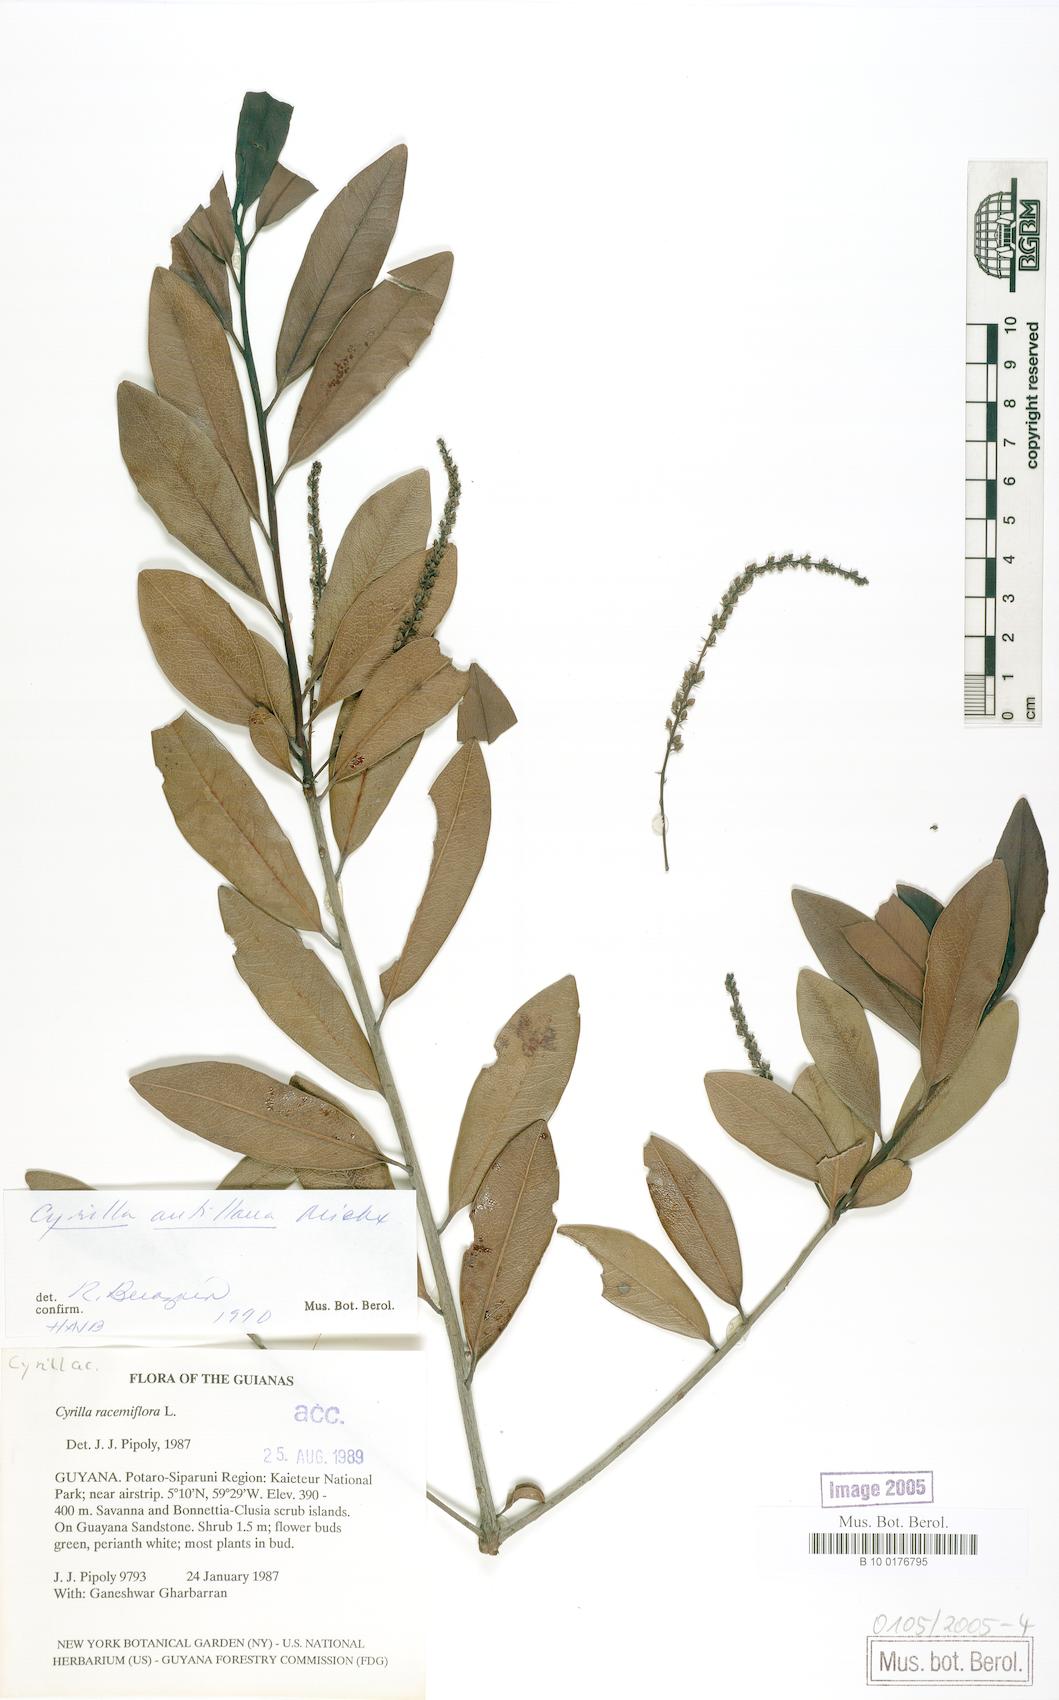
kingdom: Plantae
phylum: Tracheophyta
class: Magnoliopsida
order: Ericales
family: Cyrillaceae
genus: Cyrilla
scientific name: Cyrilla racemiflora
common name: Black titi
